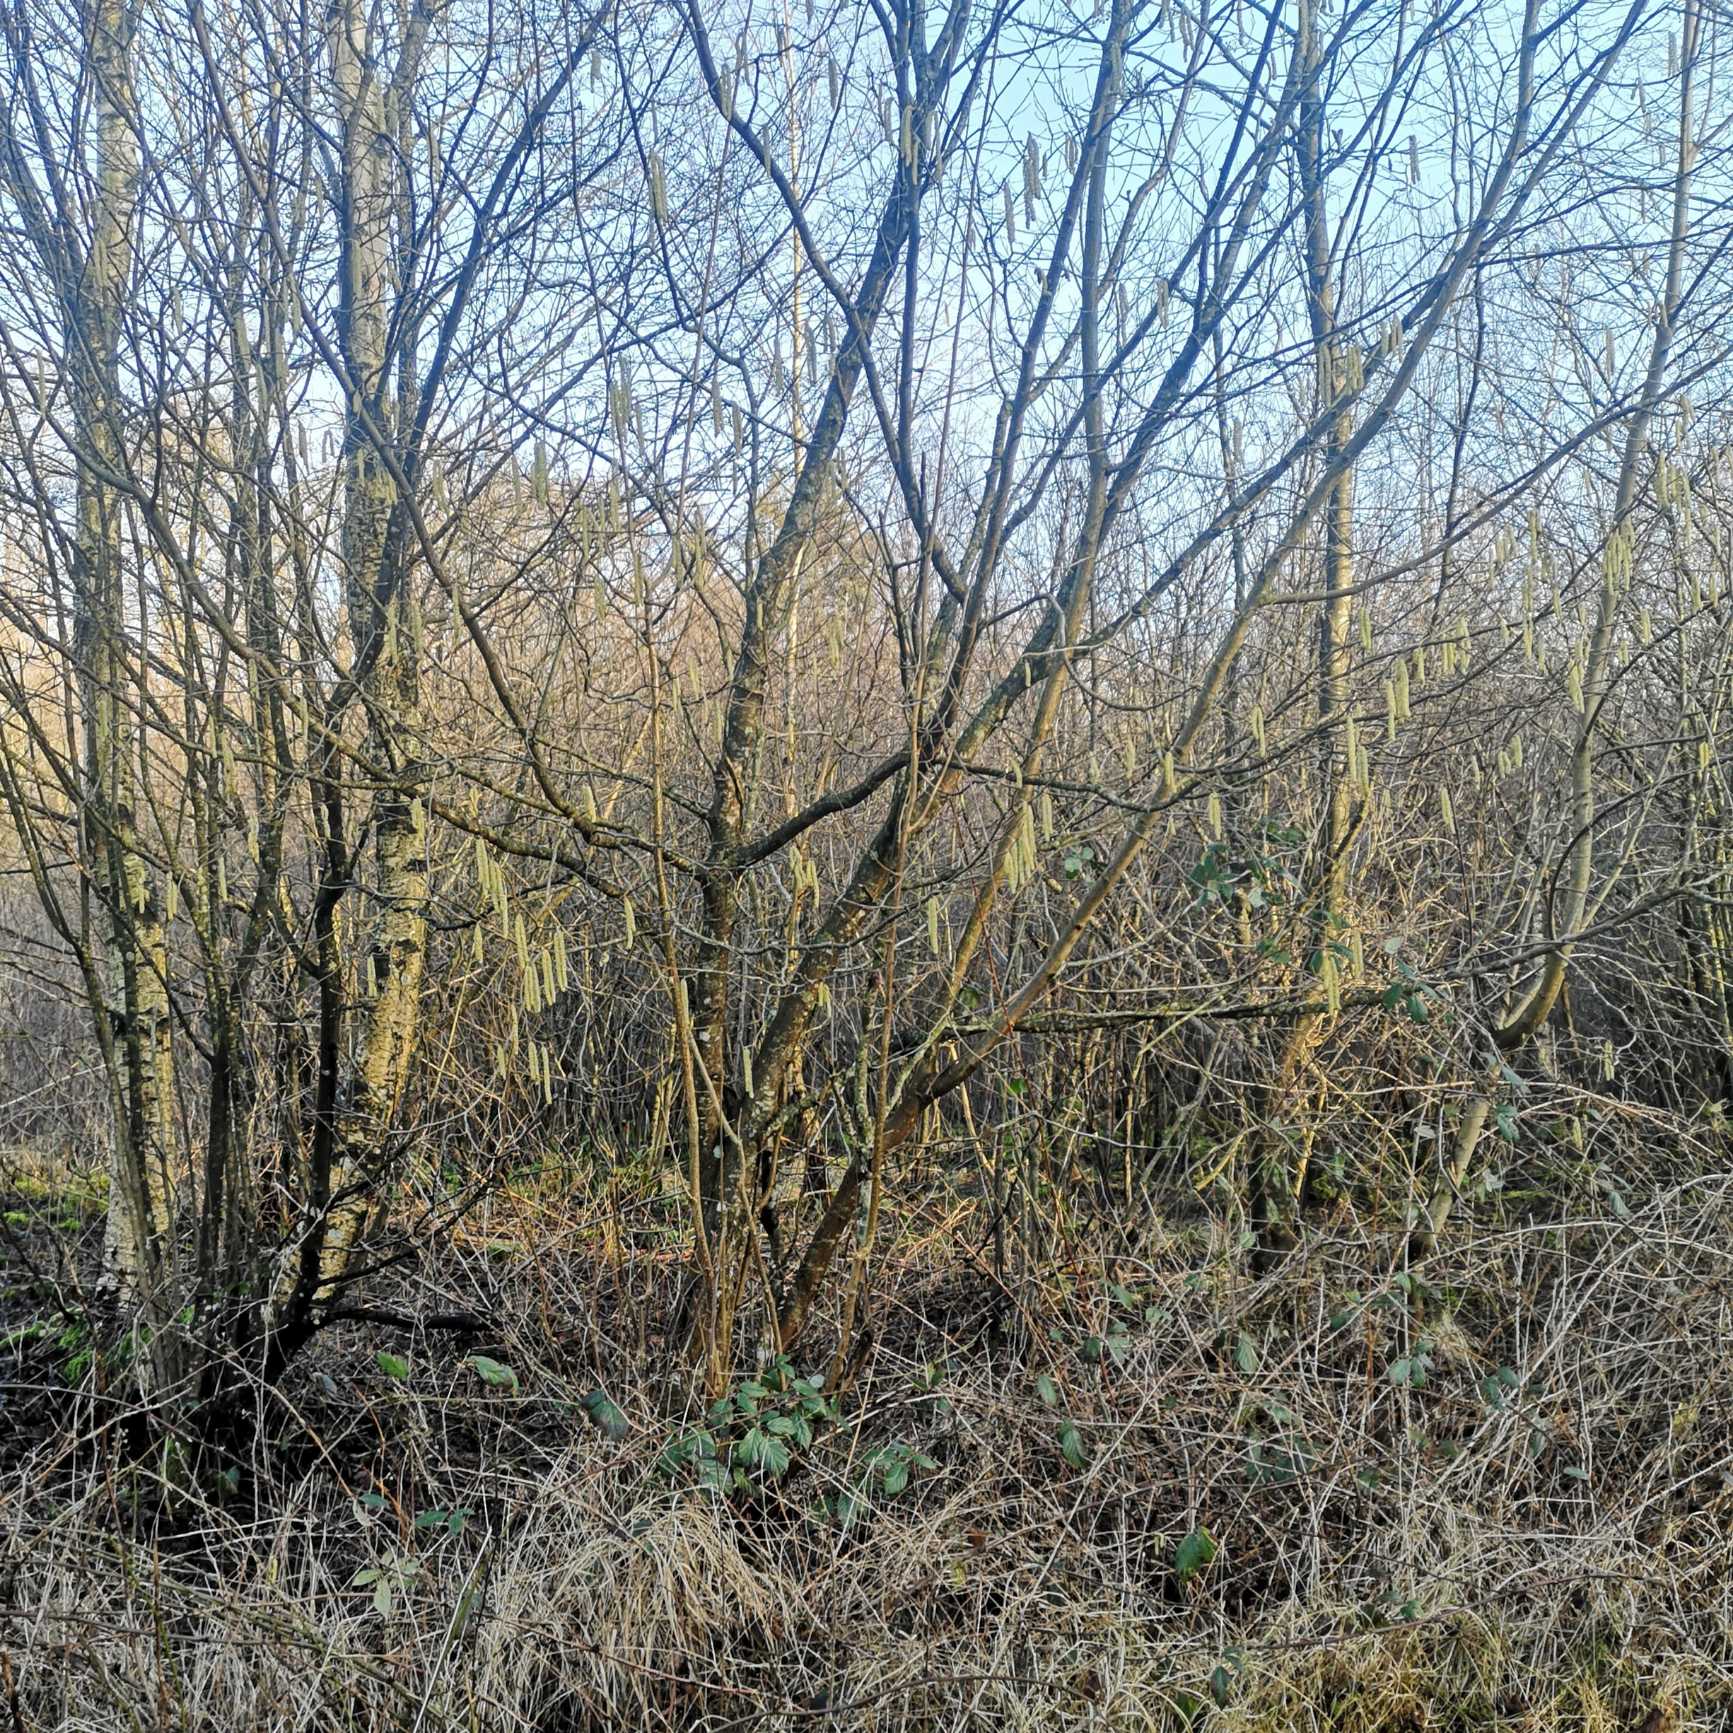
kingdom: Plantae
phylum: Tracheophyta
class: Magnoliopsida
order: Fagales
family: Betulaceae
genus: Corylus
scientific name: Corylus avellana
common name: Hassel
